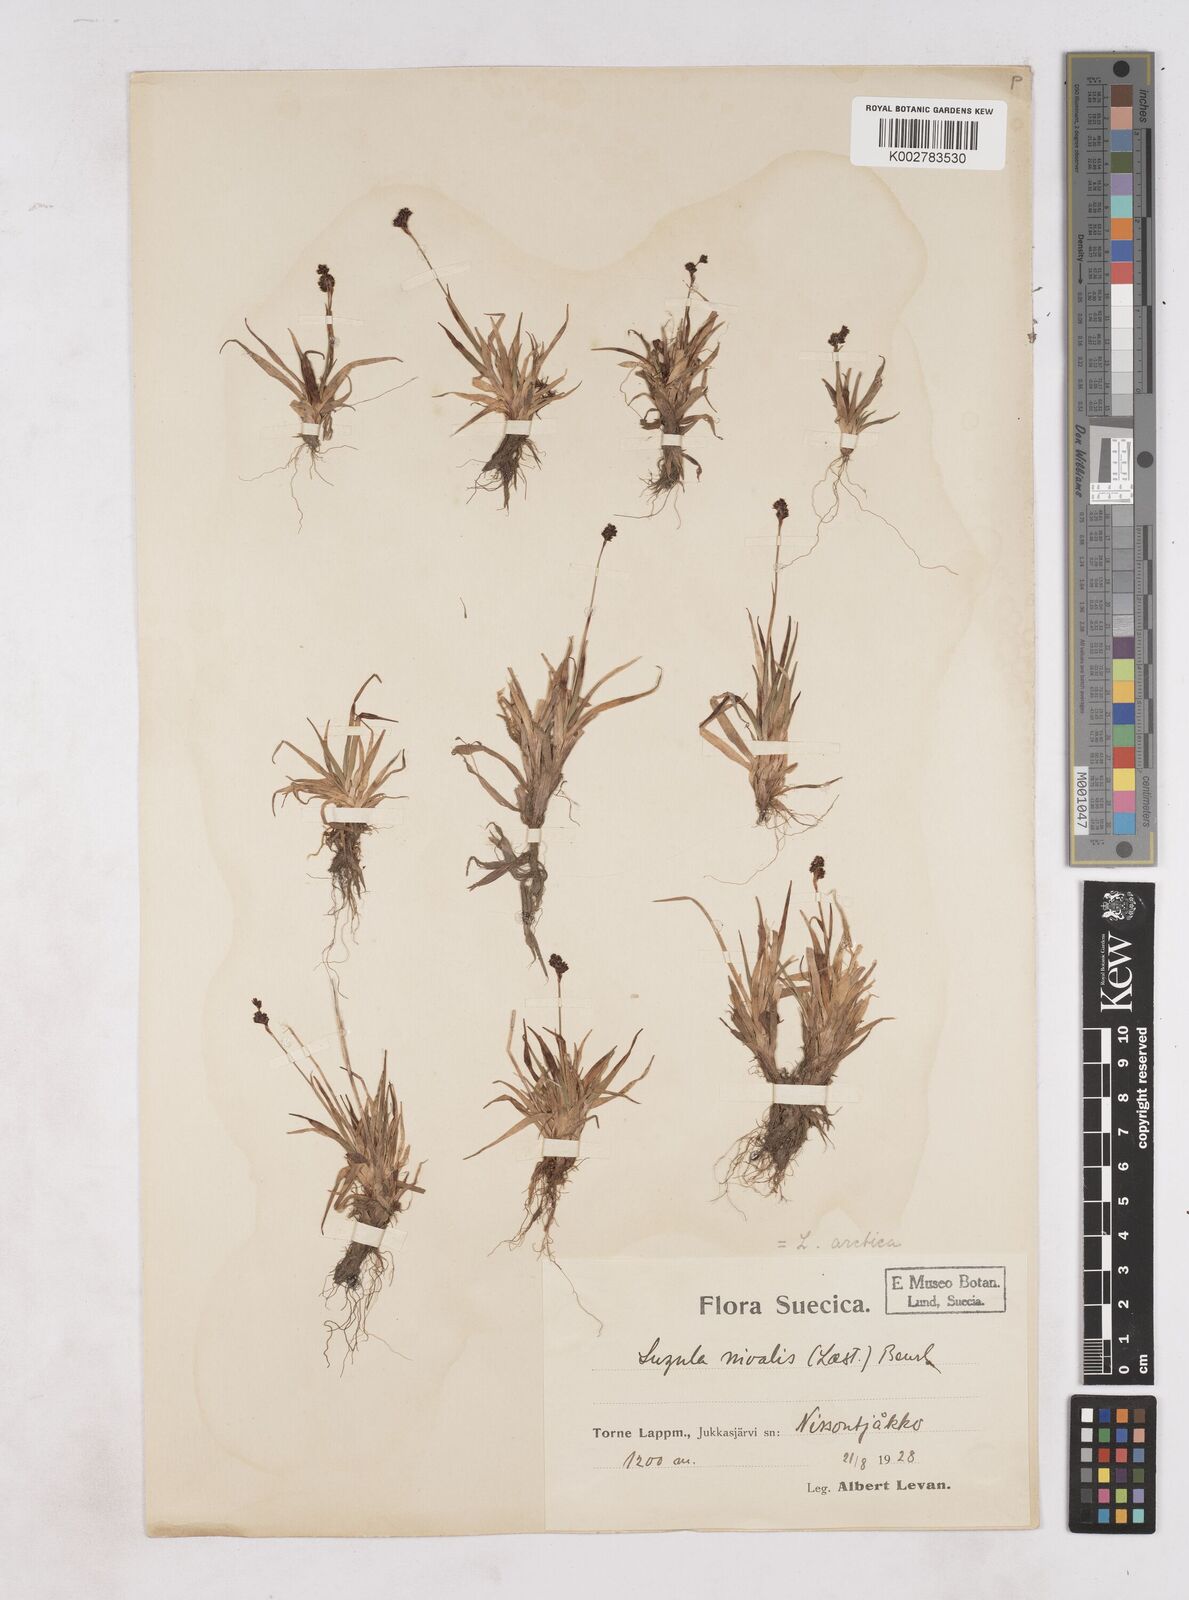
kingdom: Plantae
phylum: Tracheophyta
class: Liliopsida
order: Poales
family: Juncaceae
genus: Luzula
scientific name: Luzula nivalis
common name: Arctic woodrush
